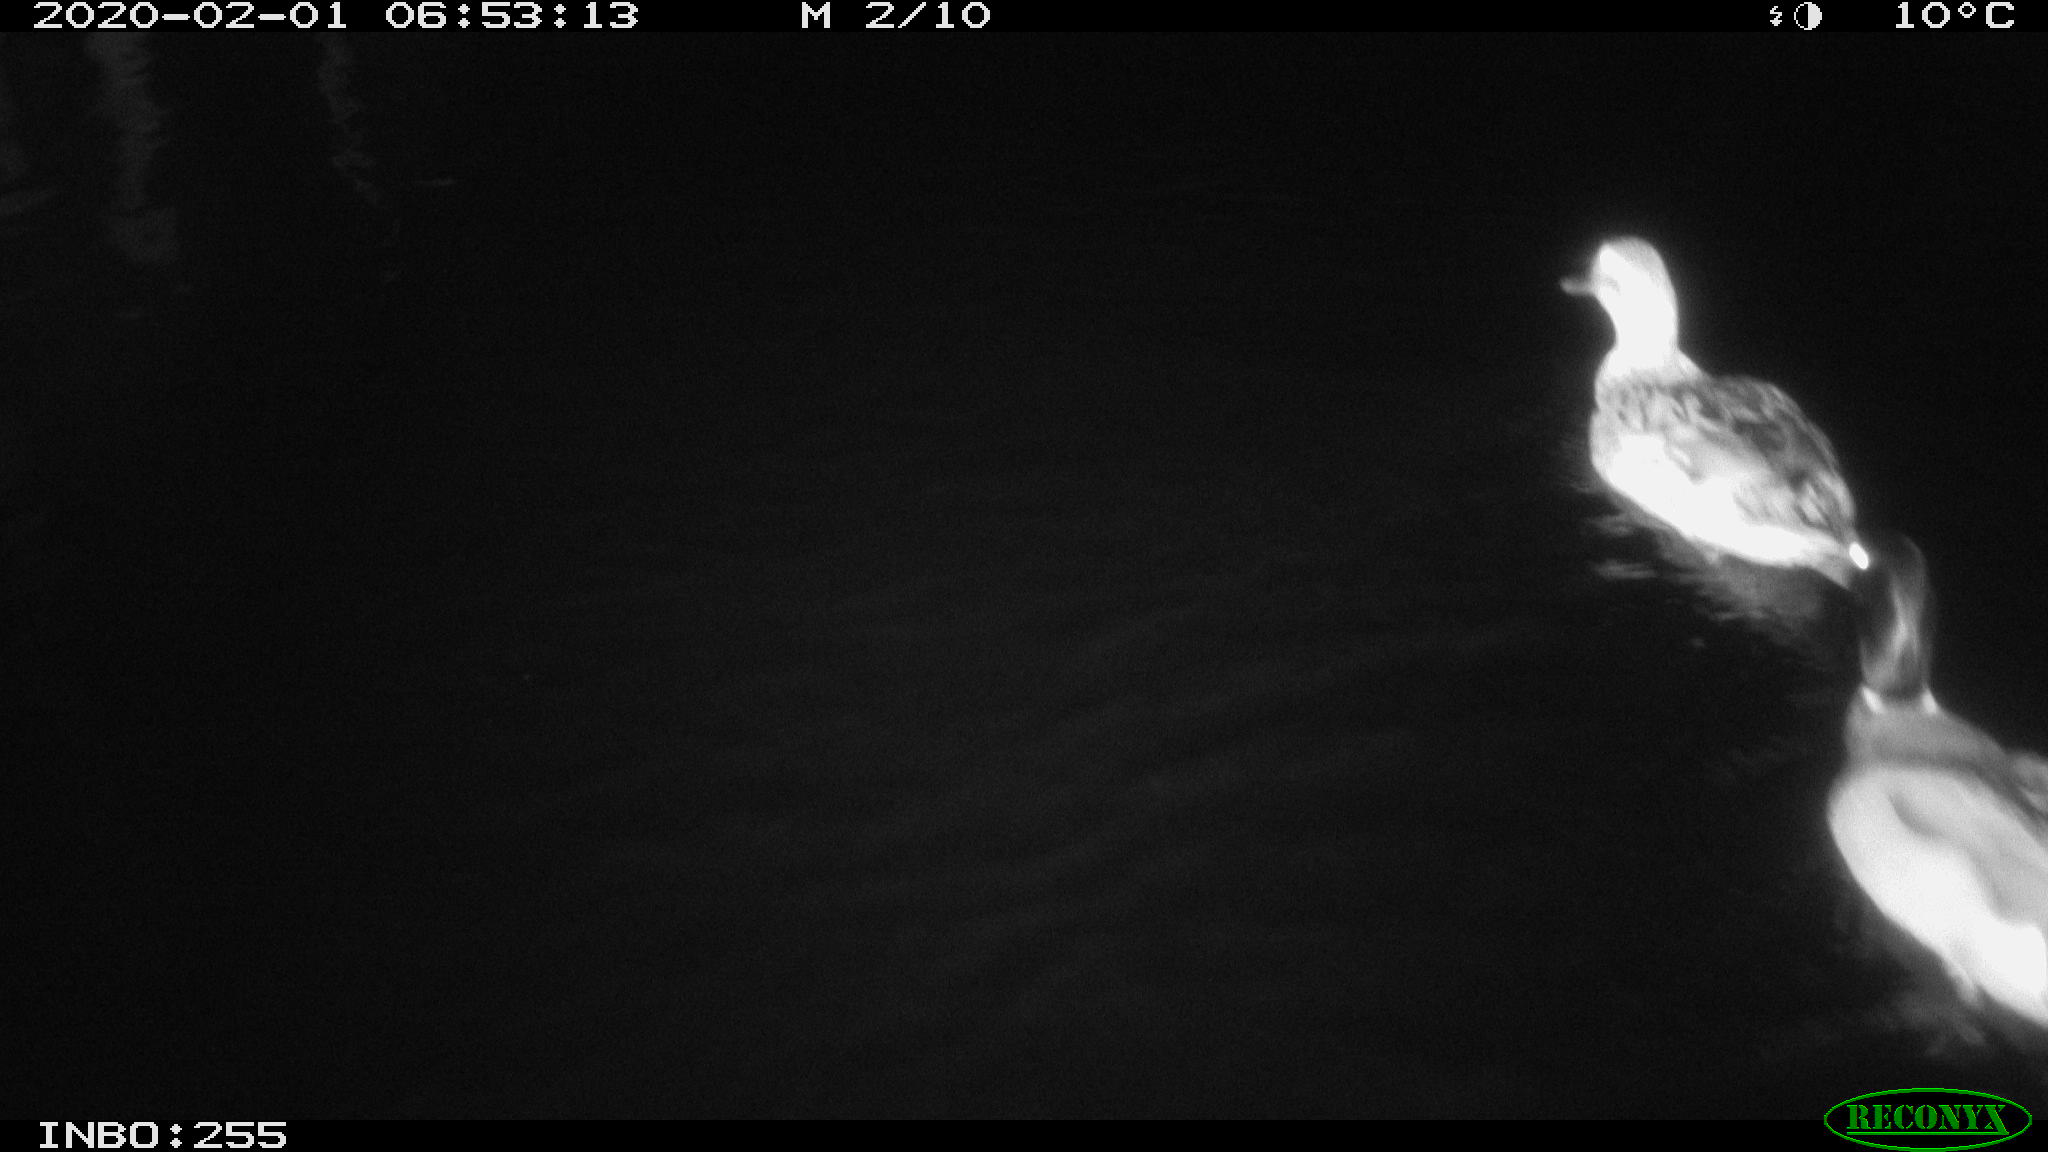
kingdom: Animalia
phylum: Chordata
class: Aves
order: Anseriformes
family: Anatidae
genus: Anas
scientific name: Anas platyrhynchos
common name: Mallard
